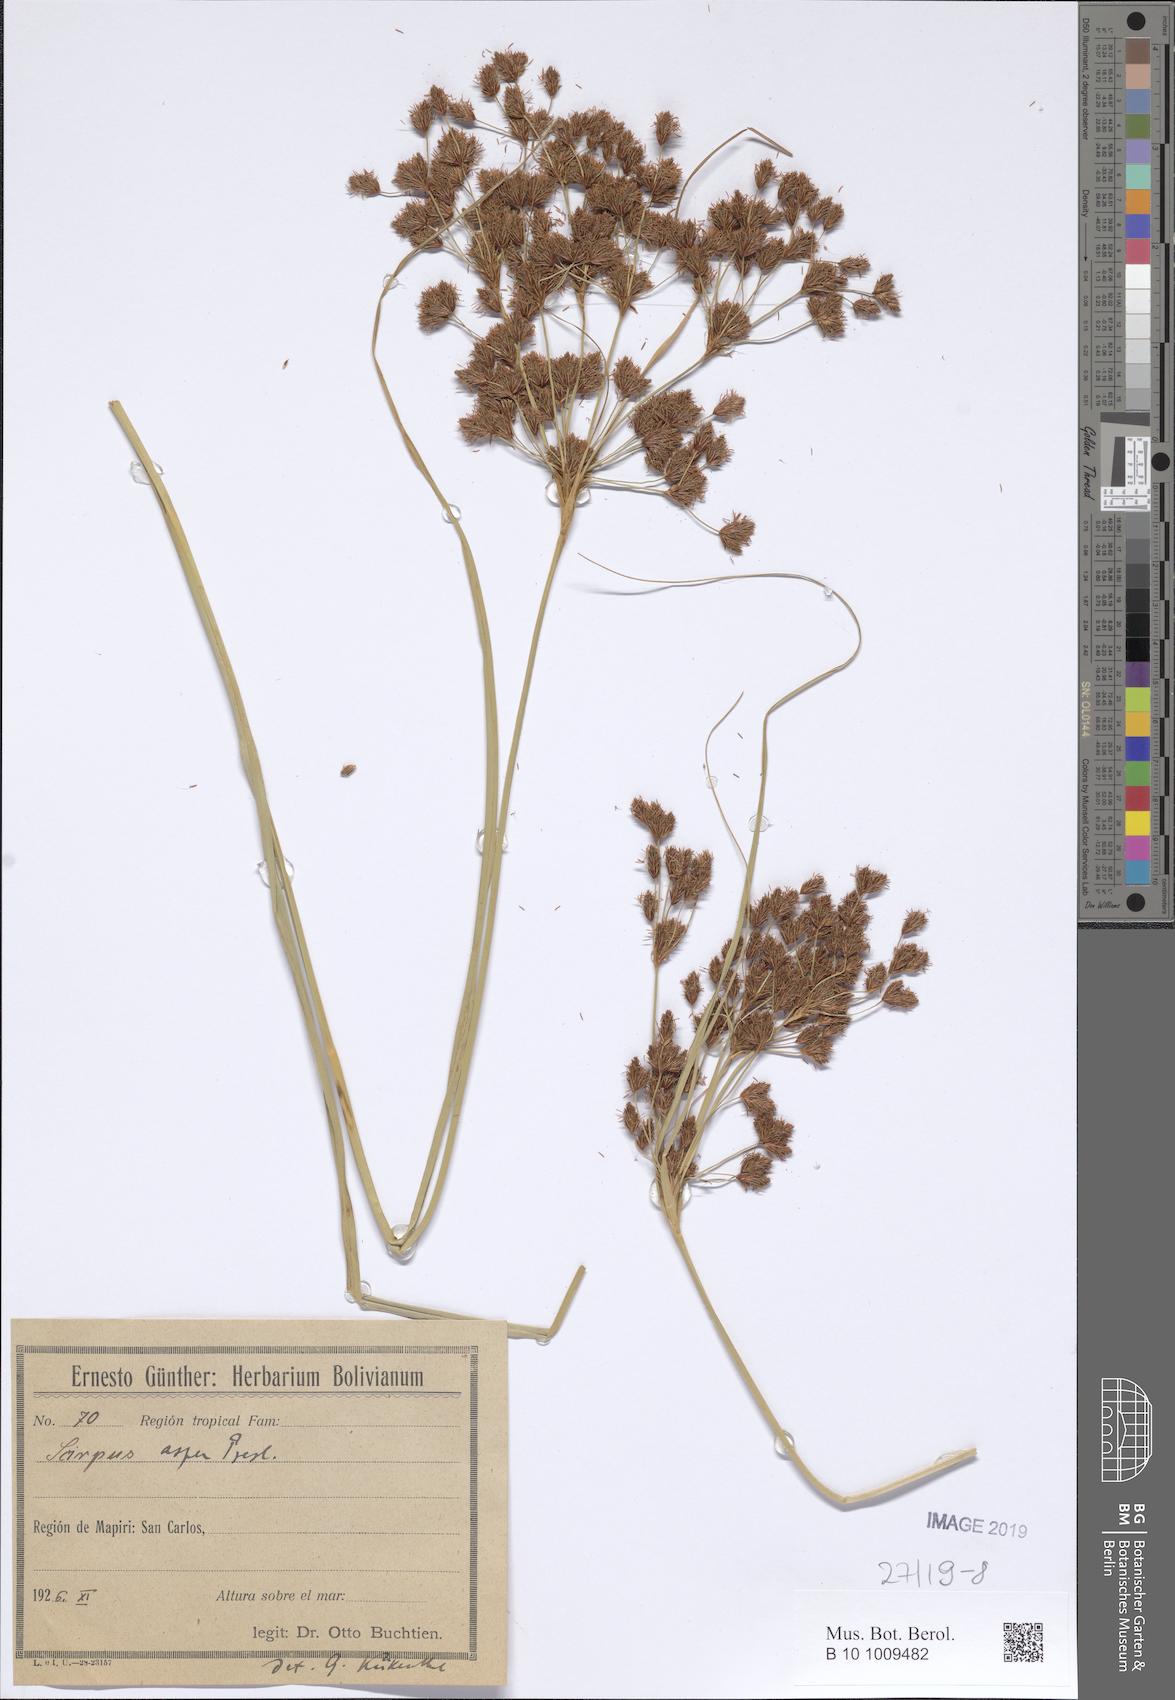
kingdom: Plantae
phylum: Tracheophyta
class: Liliopsida
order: Poales
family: Cyperaceae
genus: Rhodoscirpus
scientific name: Rhodoscirpus asper
